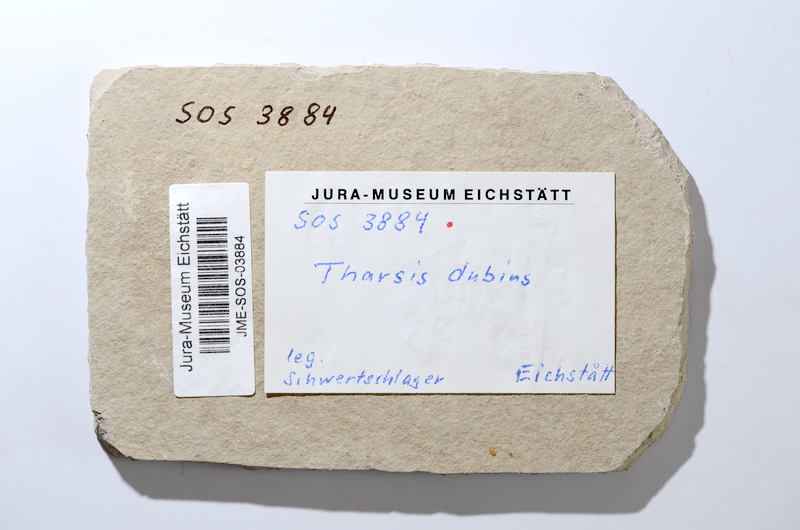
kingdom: Animalia
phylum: Chordata
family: Ascalaboidae
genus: Tharsis
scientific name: Tharsis dubius
